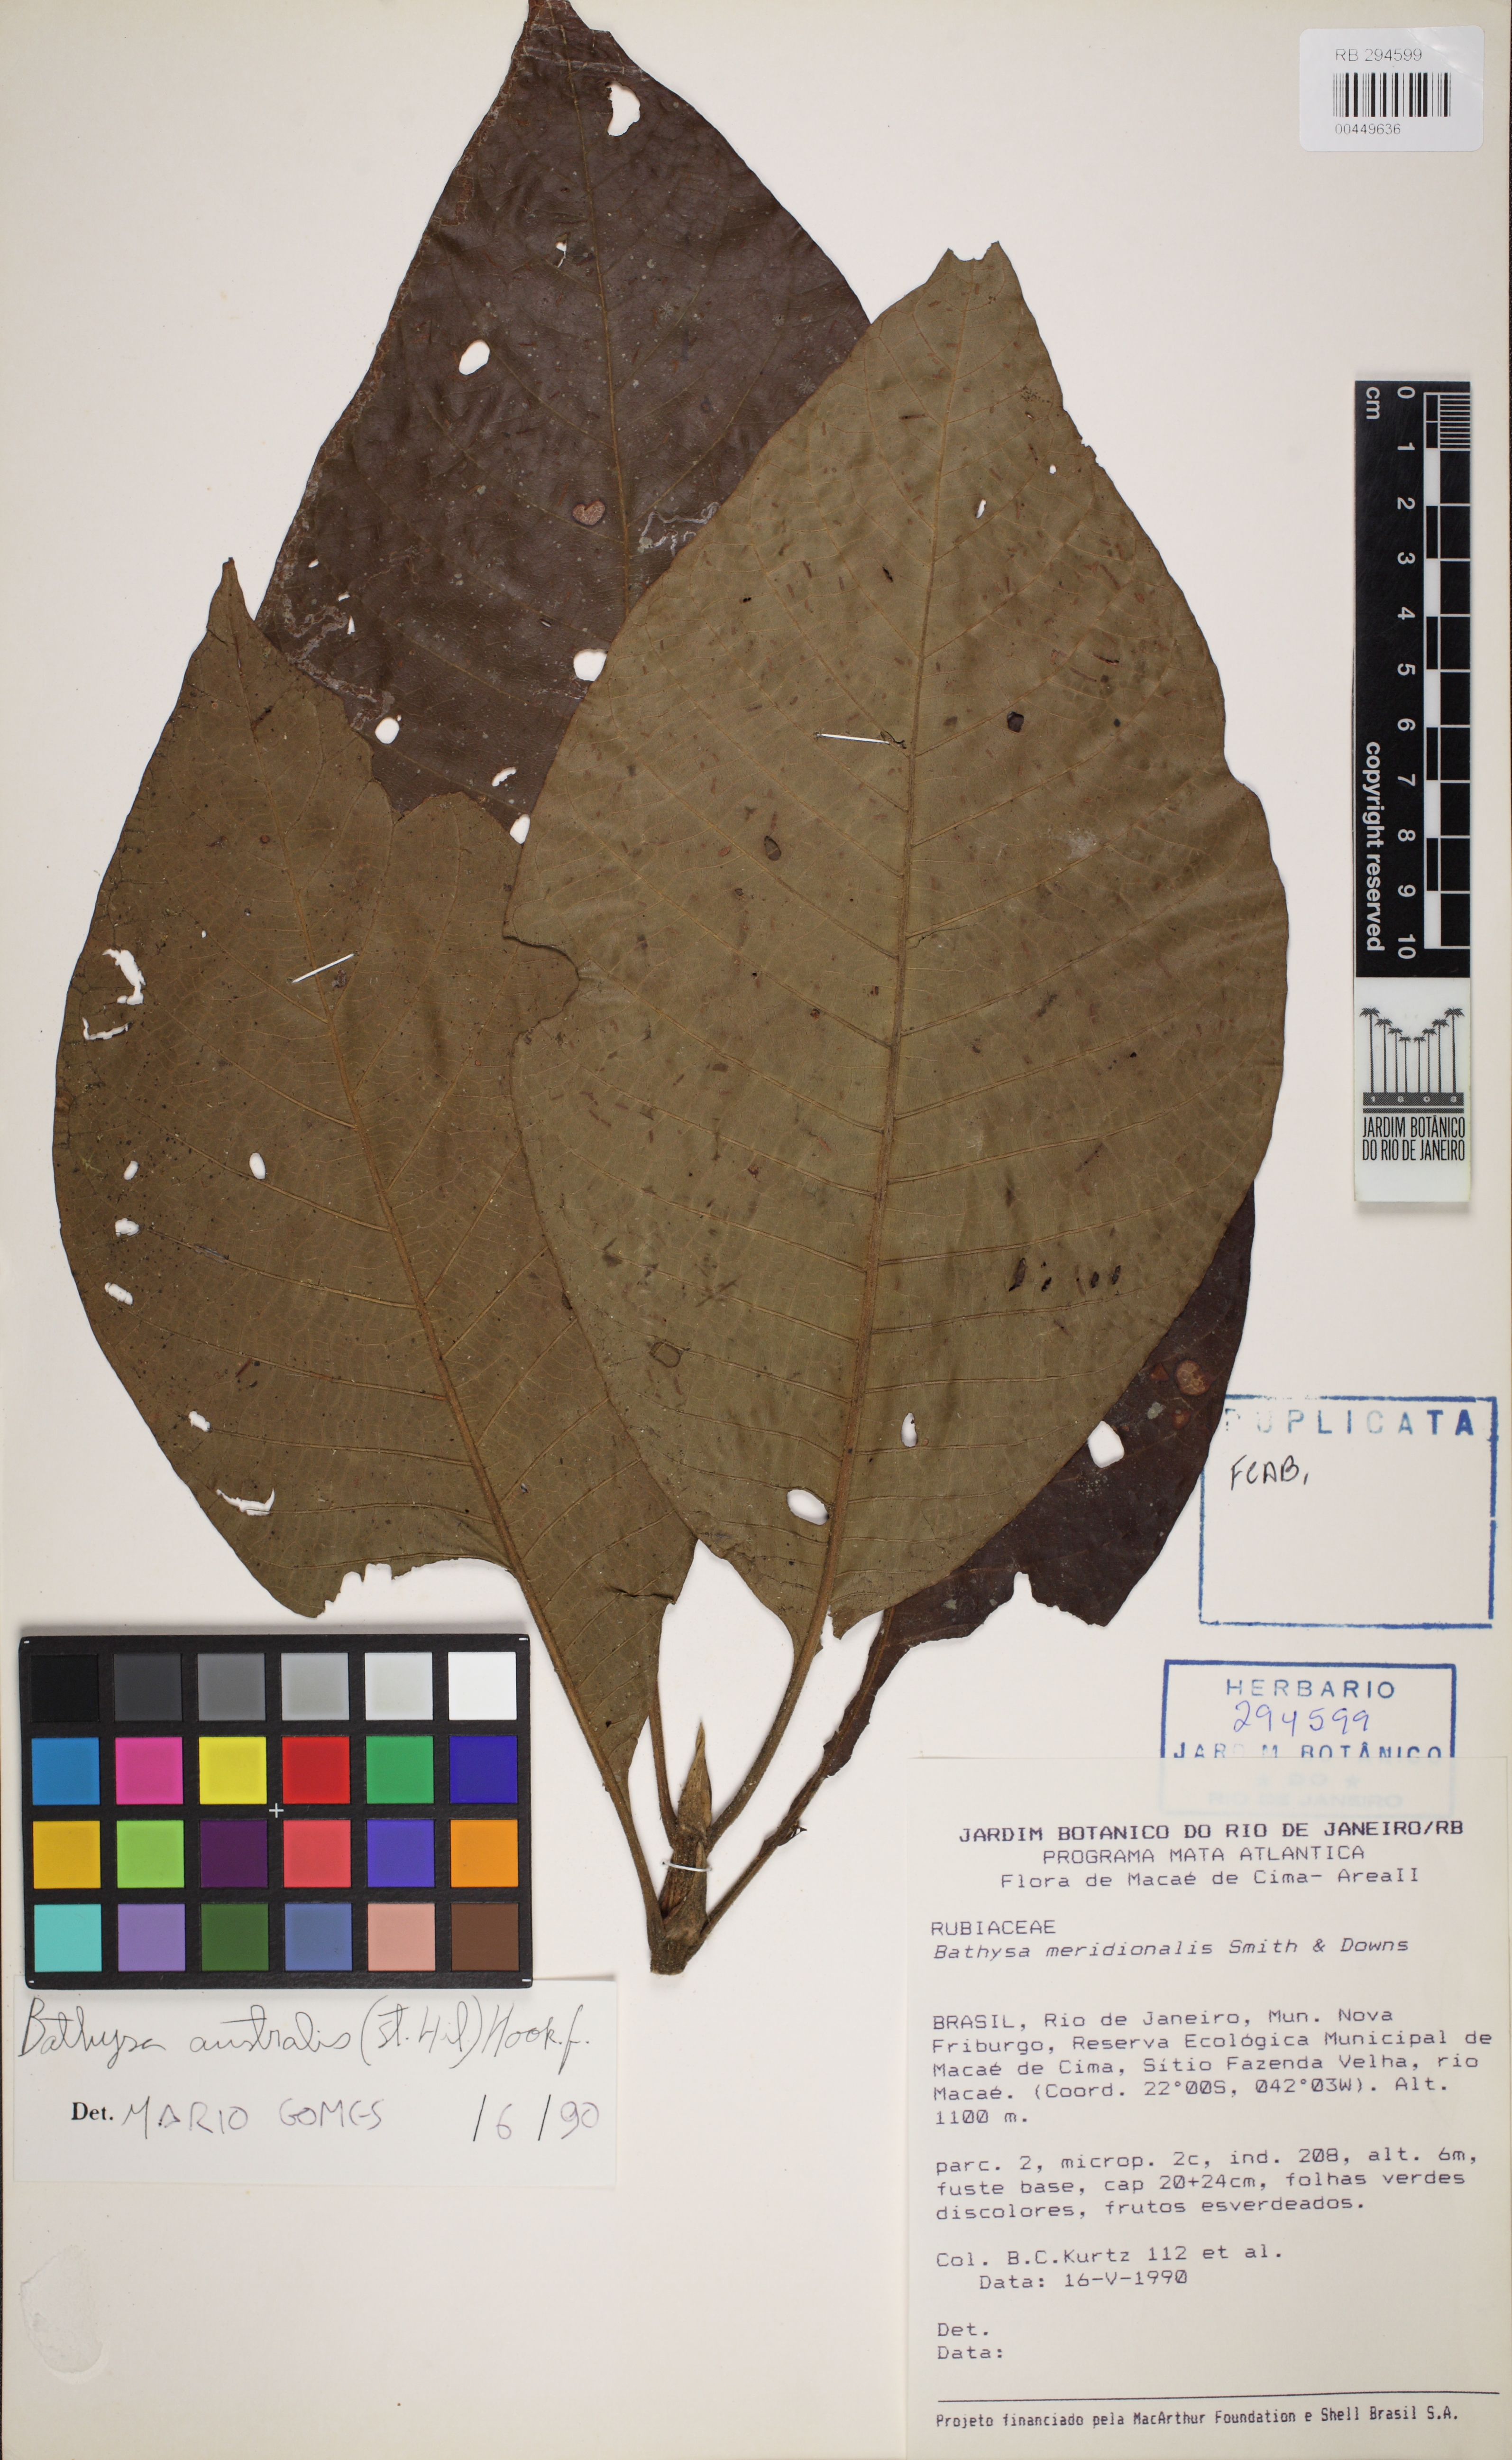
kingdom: Plantae
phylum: Tracheophyta
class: Magnoliopsida
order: Gentianales
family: Rubiaceae
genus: Bathysa
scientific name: Bathysa australis
